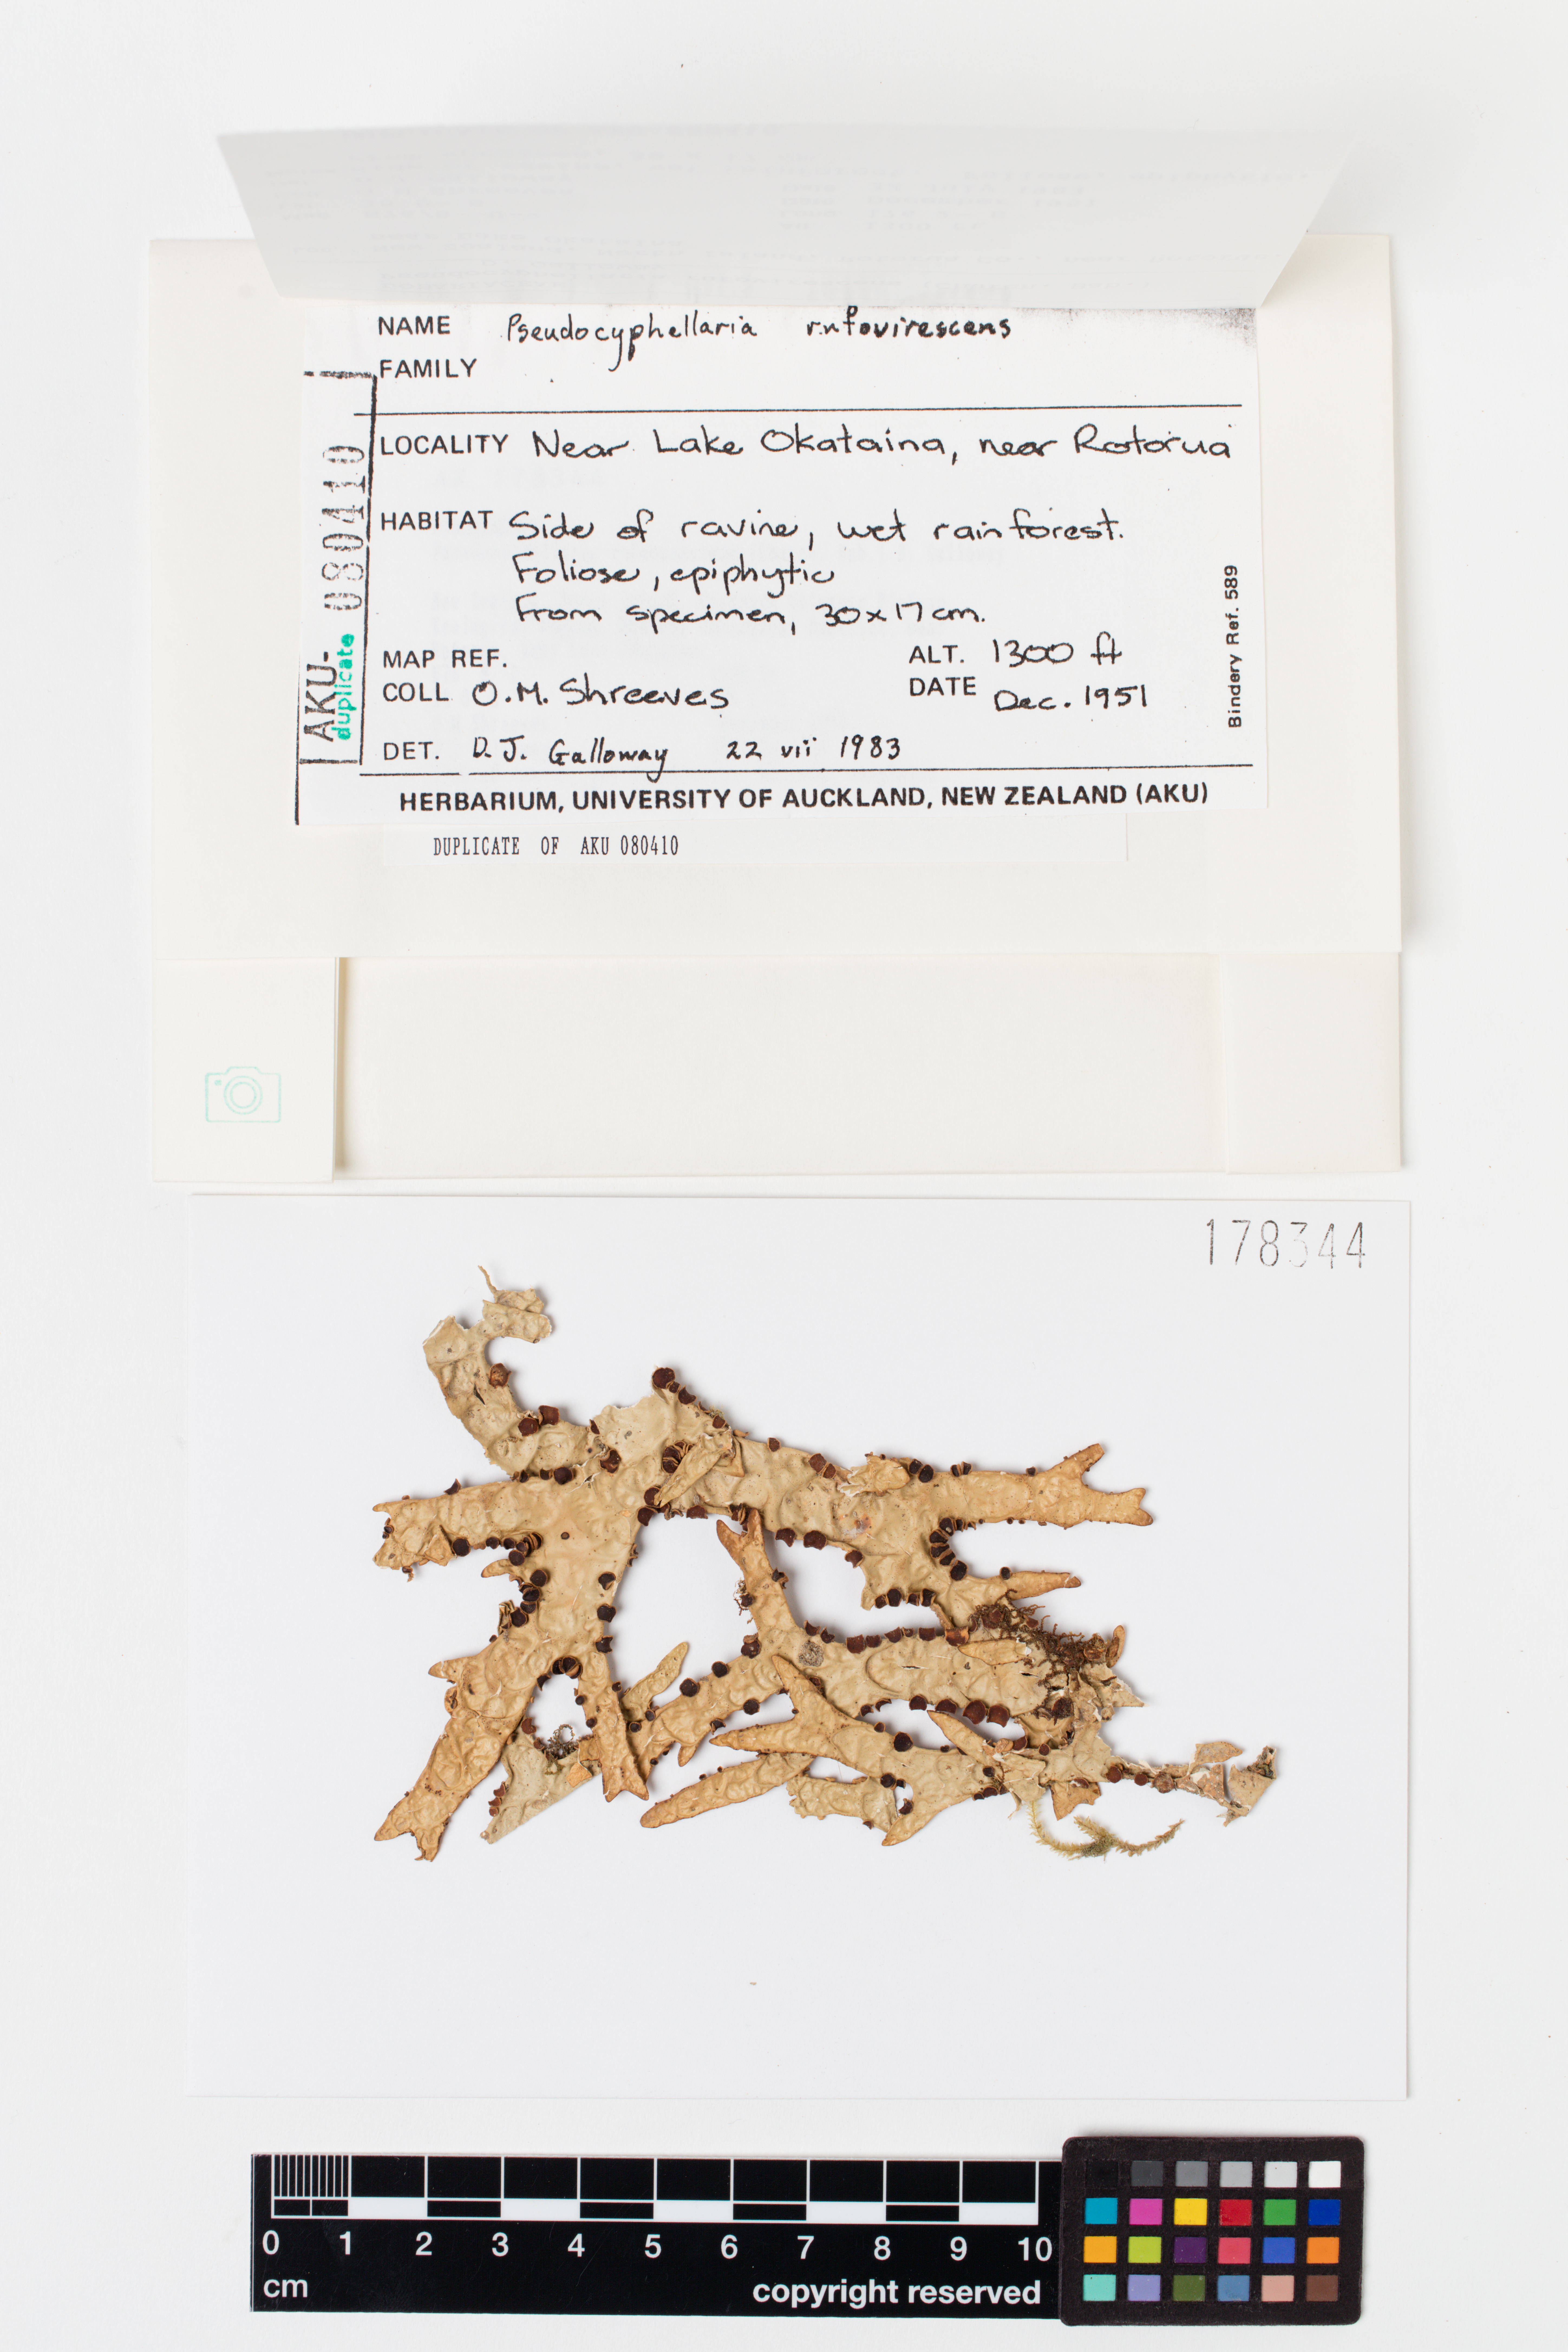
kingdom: Fungi
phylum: Ascomycota
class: Lecanoromycetes
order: Peltigerales
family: Lobariaceae
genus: Pseudocyphellaria
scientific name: Pseudocyphellaria rufovirescens
